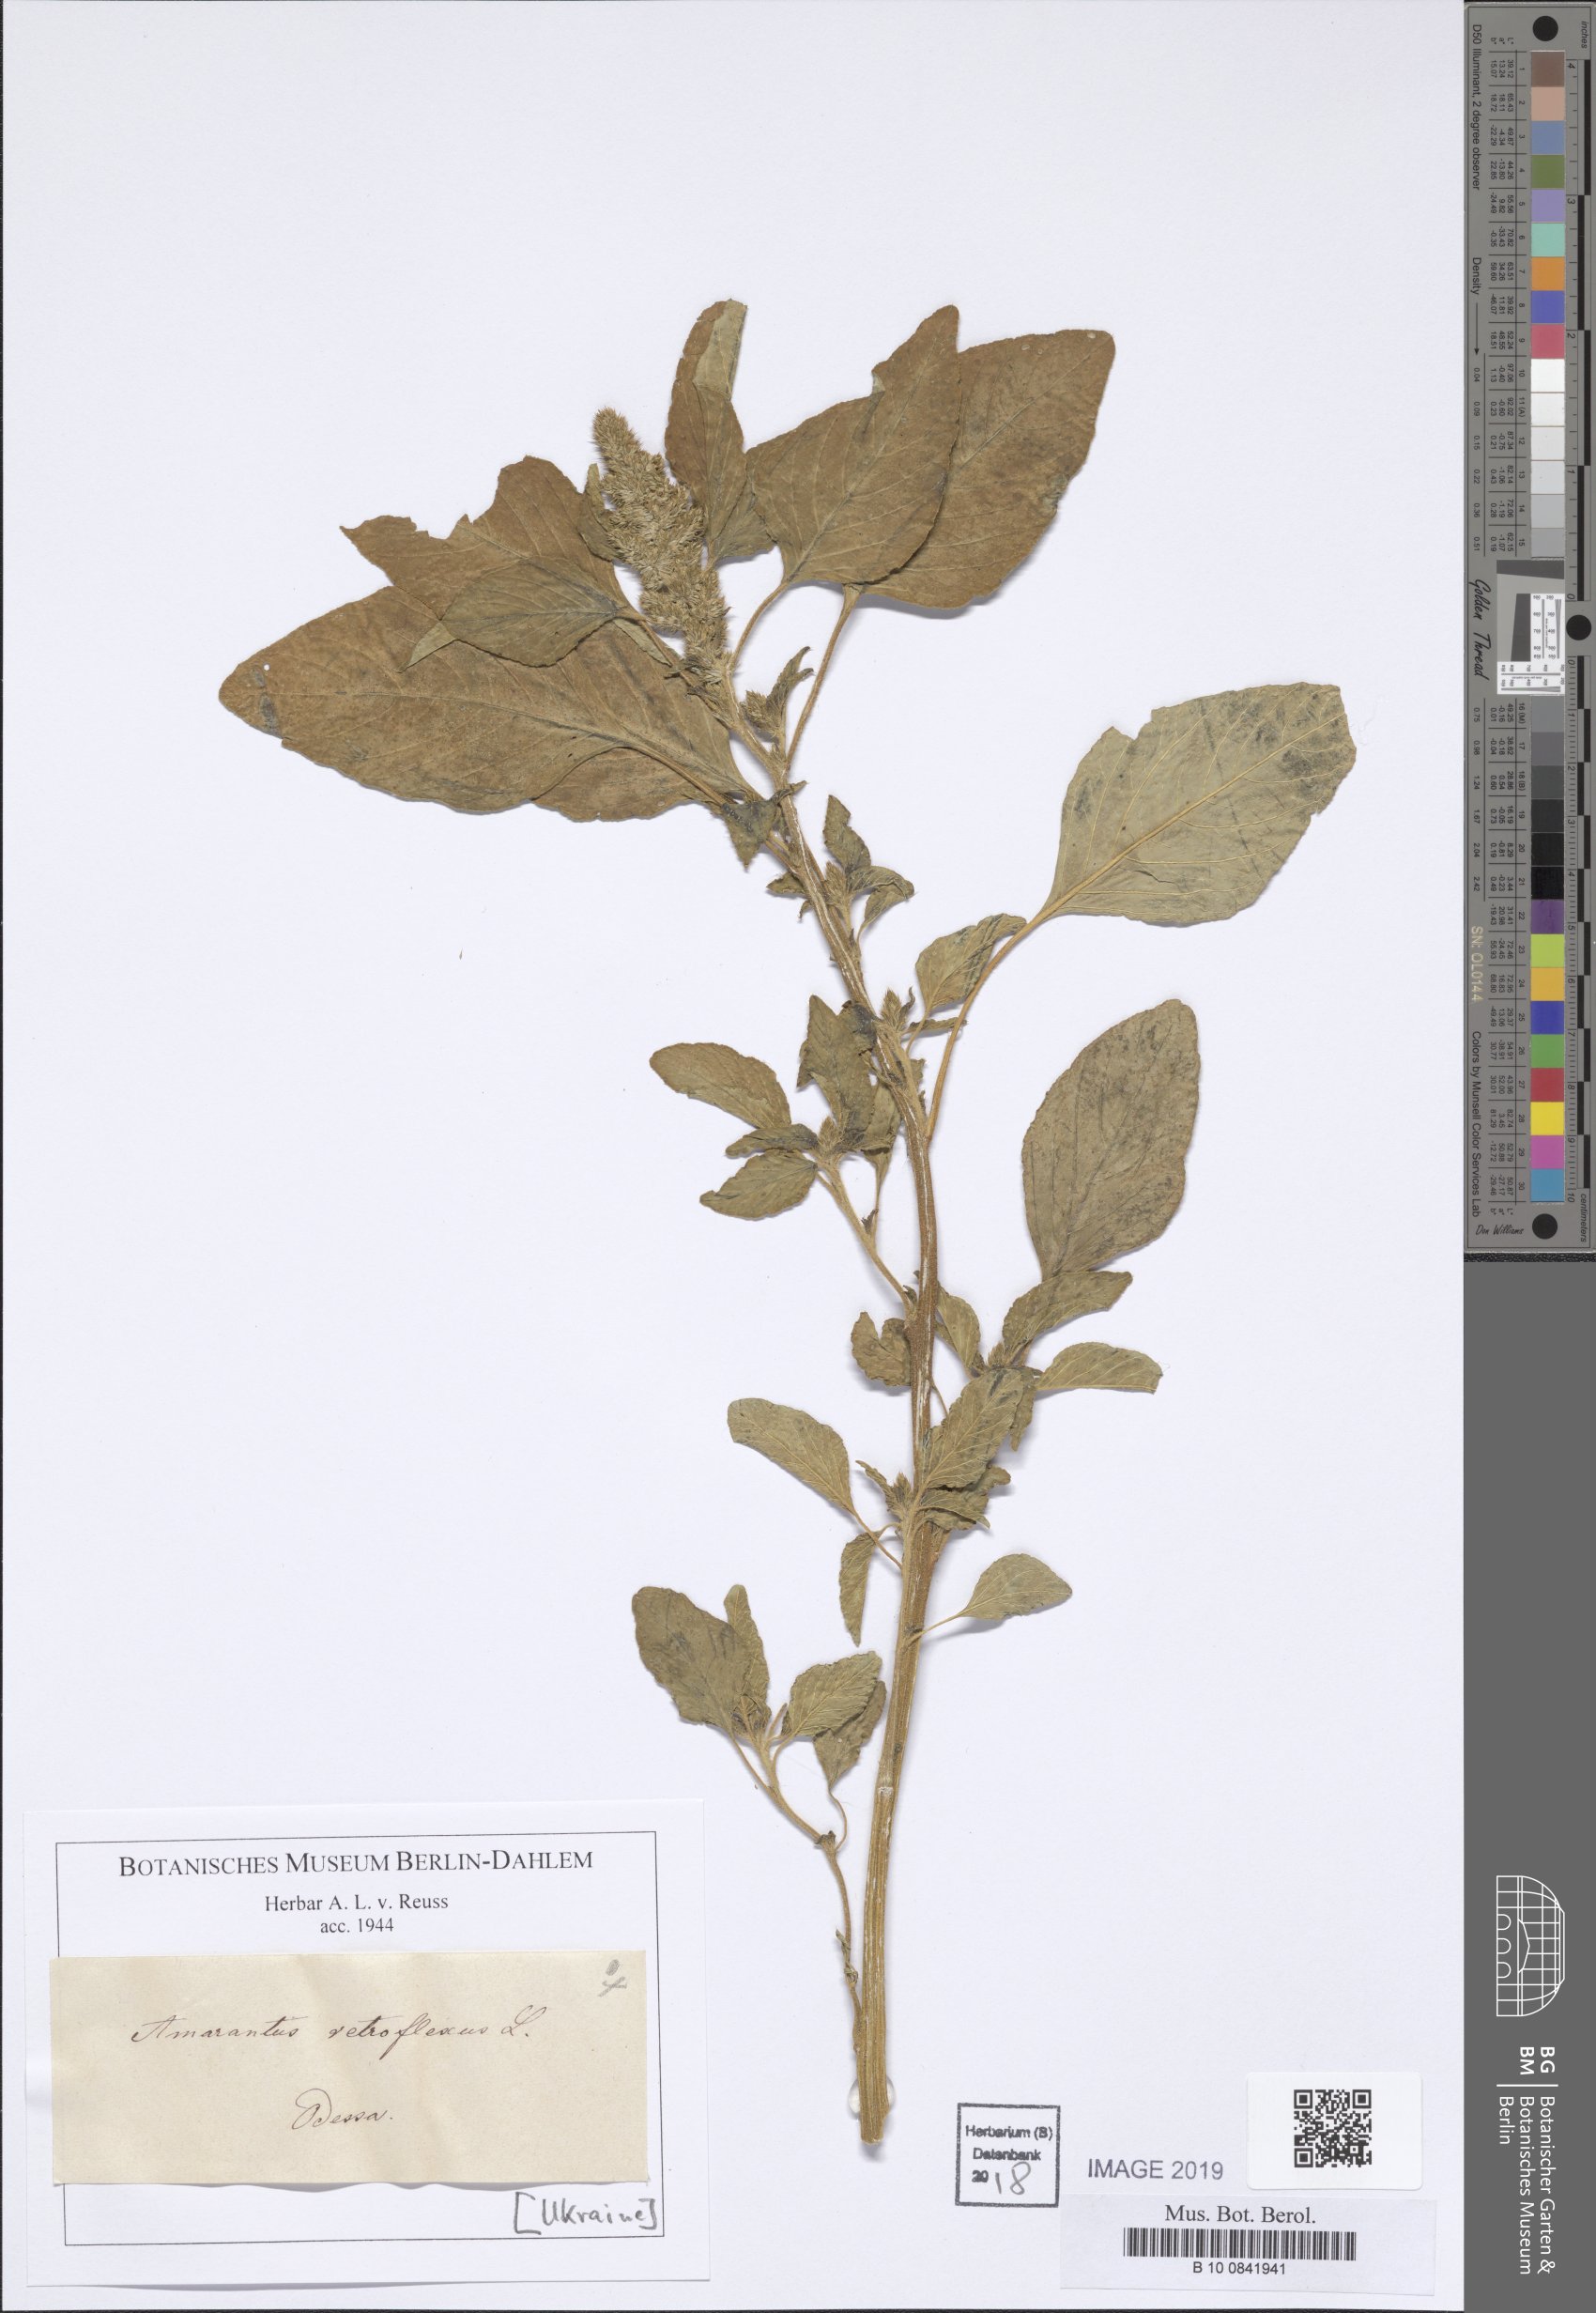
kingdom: Plantae
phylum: Tracheophyta
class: Magnoliopsida
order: Caryophyllales
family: Amaranthaceae
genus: Amaranthus
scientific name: Amaranthus retroflexus
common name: Redroot amaranth
